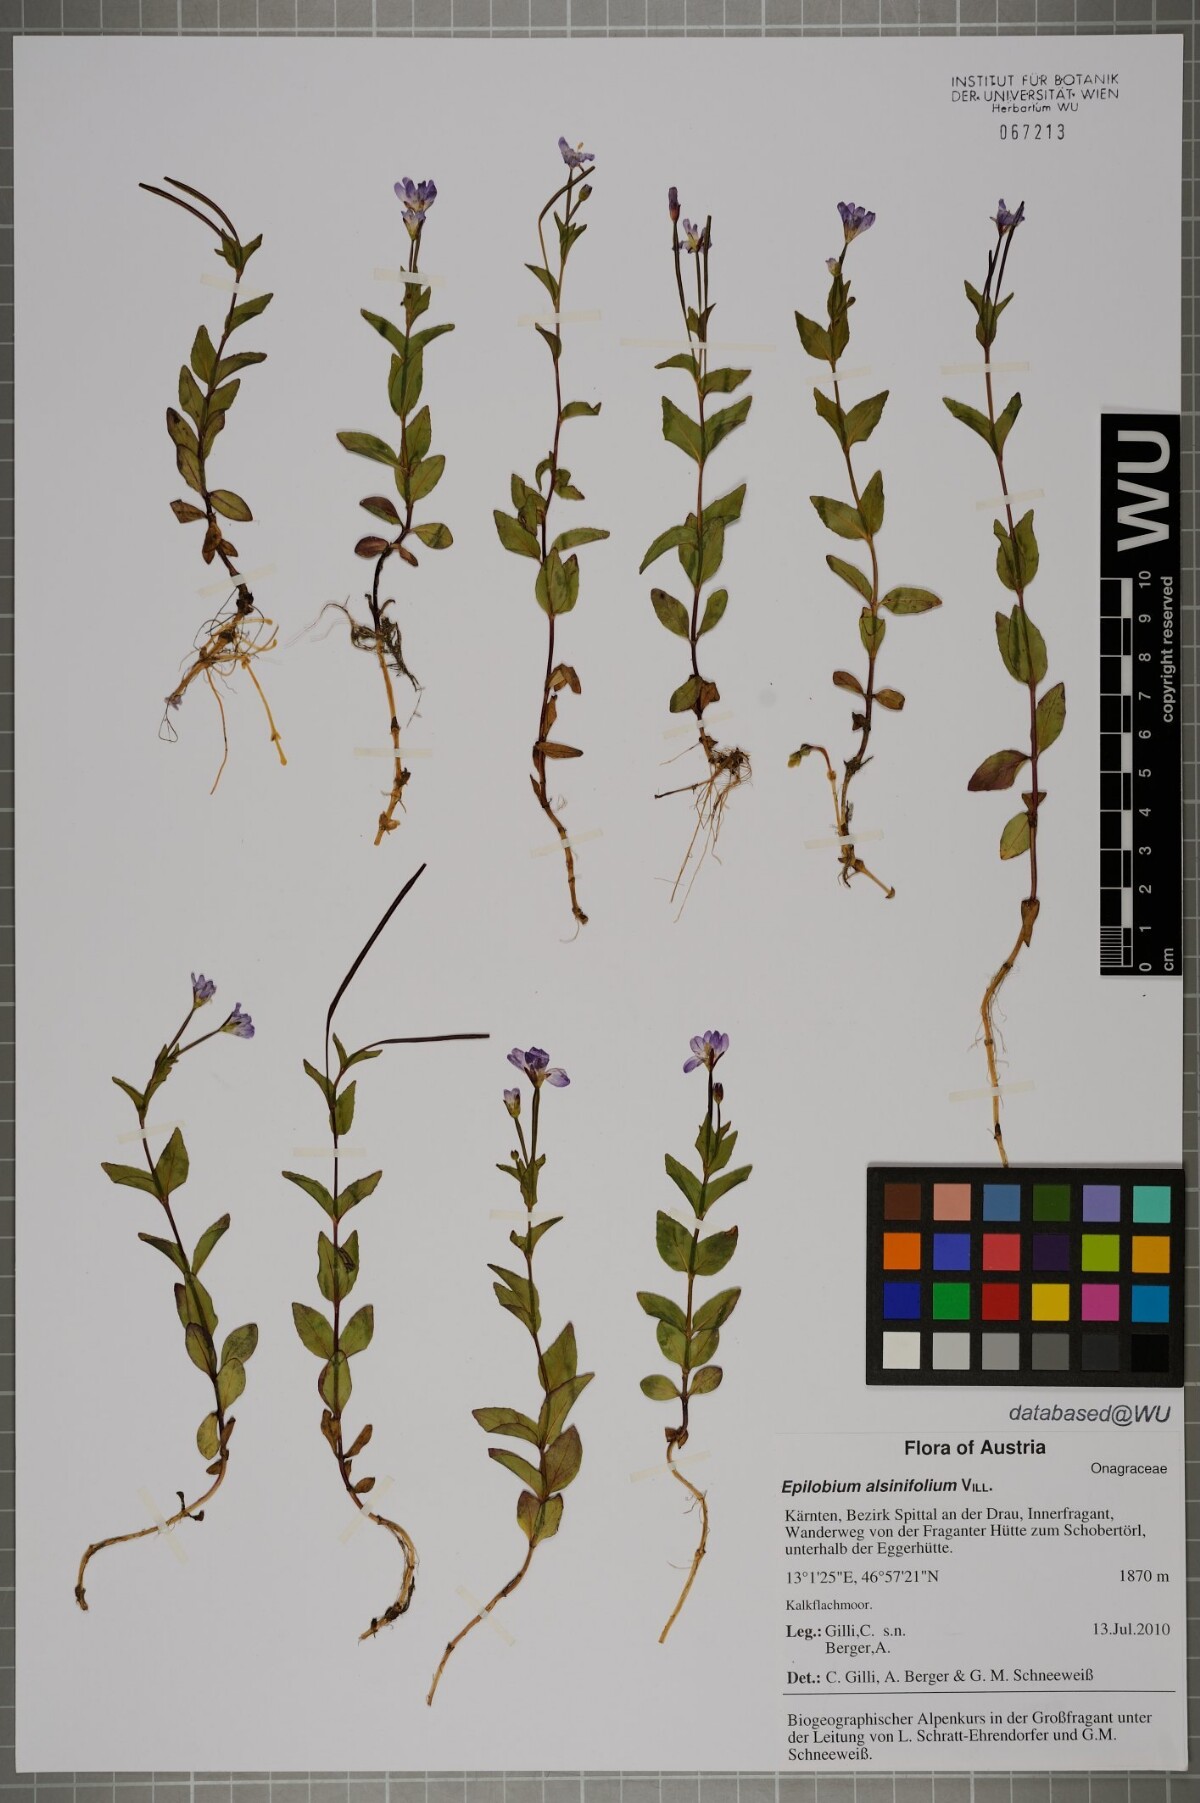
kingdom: Plantae
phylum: Tracheophyta
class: Magnoliopsida
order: Myrtales
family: Onagraceae
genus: Epilobium
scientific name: Epilobium alsinifolium
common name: Chickweed willowherb
